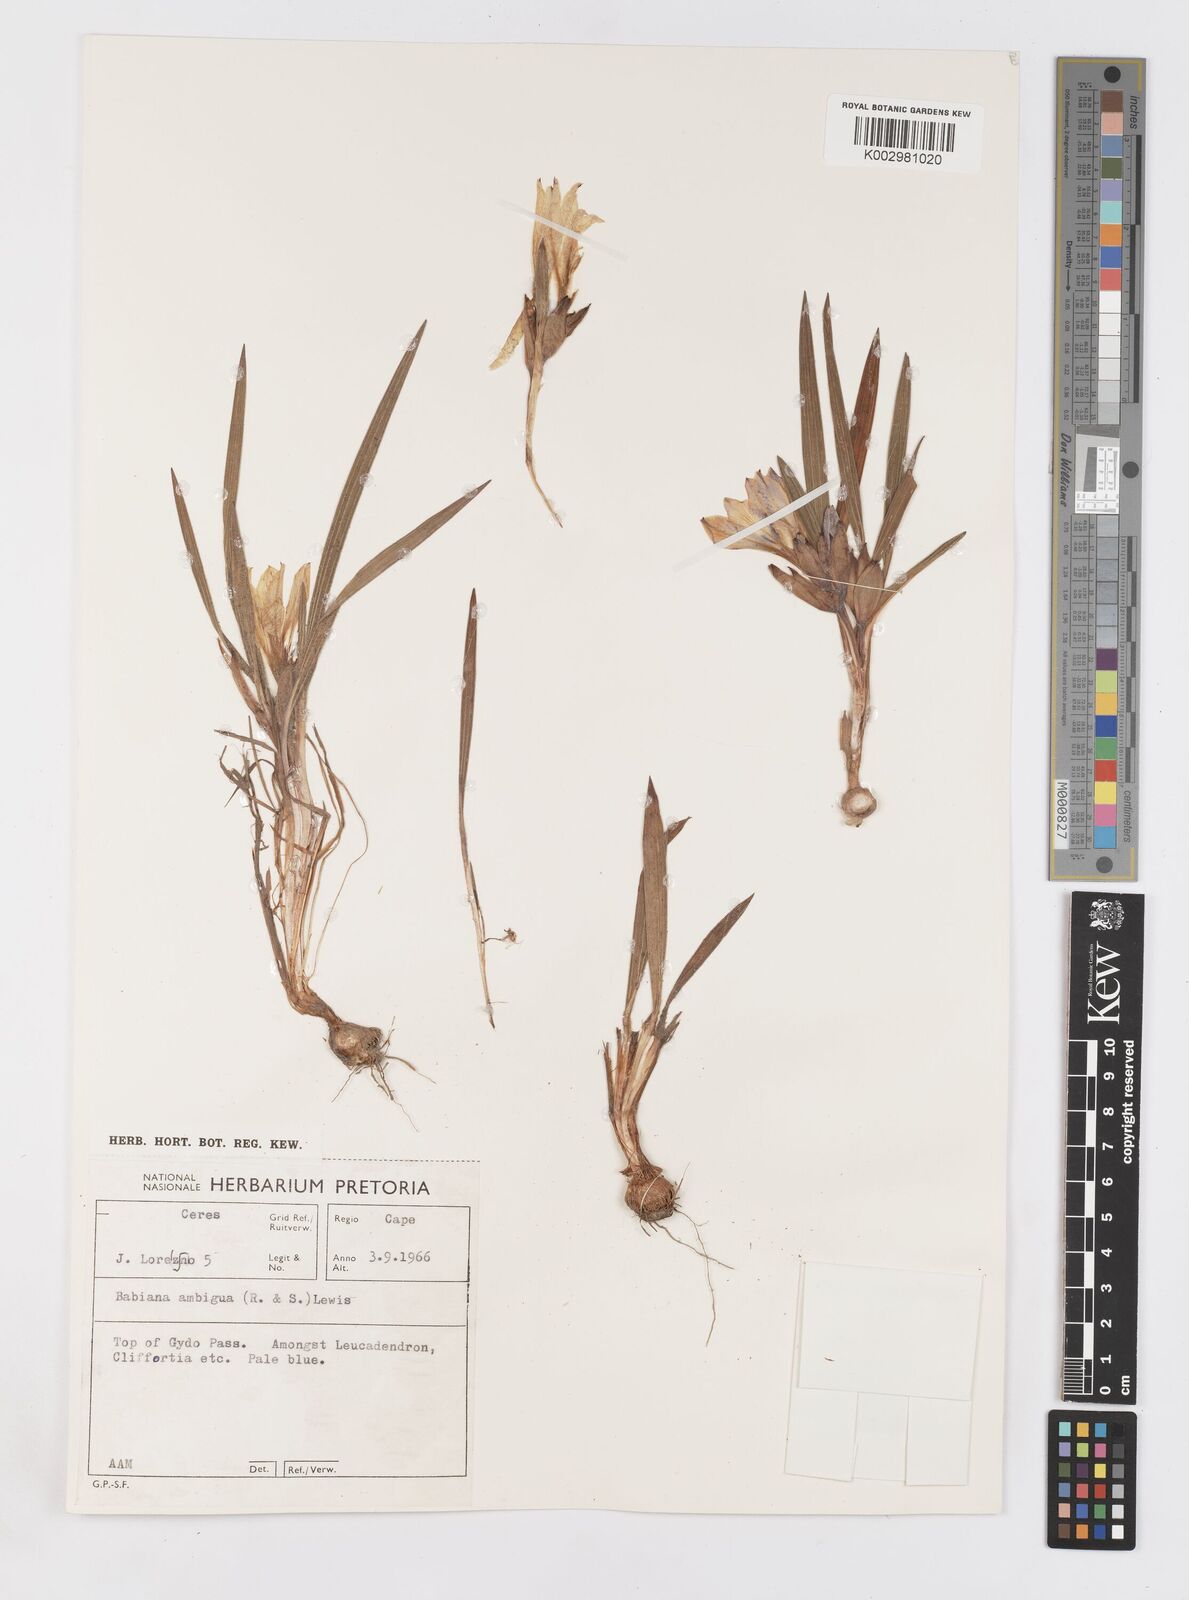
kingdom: Plantae
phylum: Tracheophyta
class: Liliopsida
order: Asparagales
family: Iridaceae
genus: Babiana
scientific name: Babiana ambigua
